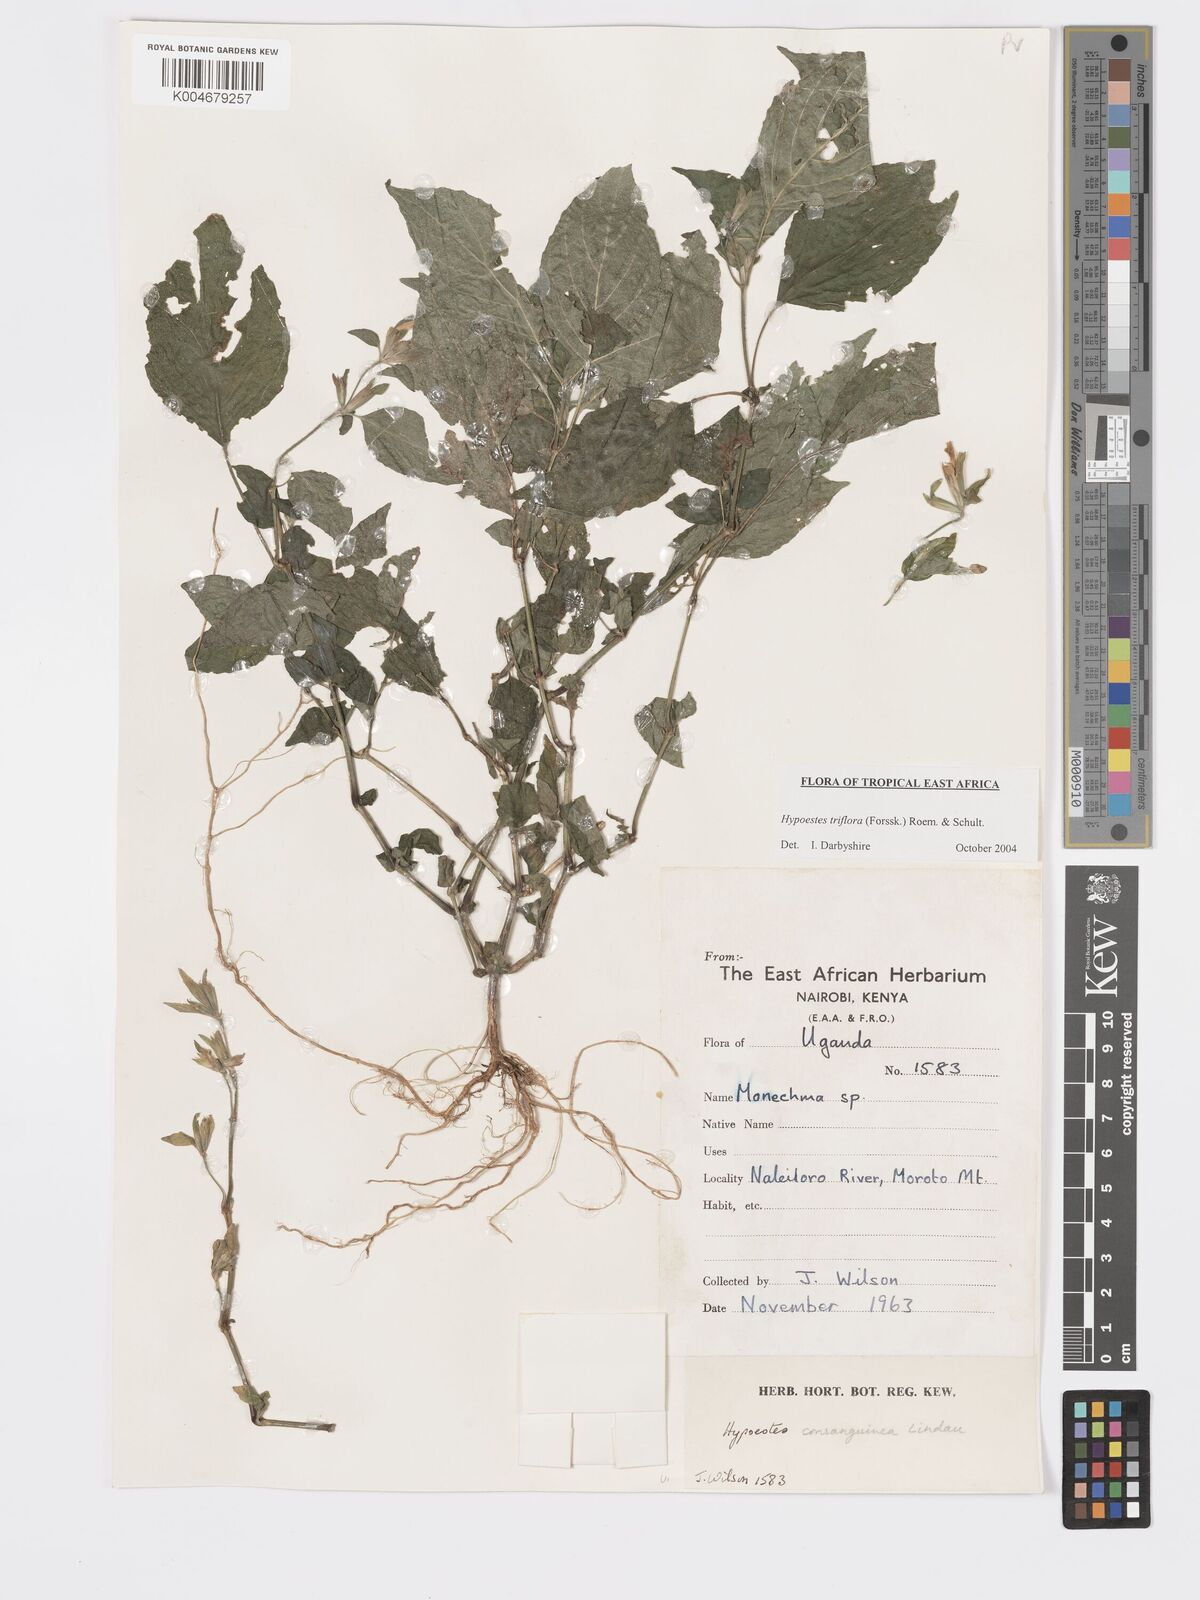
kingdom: Plantae
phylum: Tracheophyta
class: Magnoliopsida
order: Lamiales
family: Acanthaceae
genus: Hypoestes
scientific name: Hypoestes triflora
